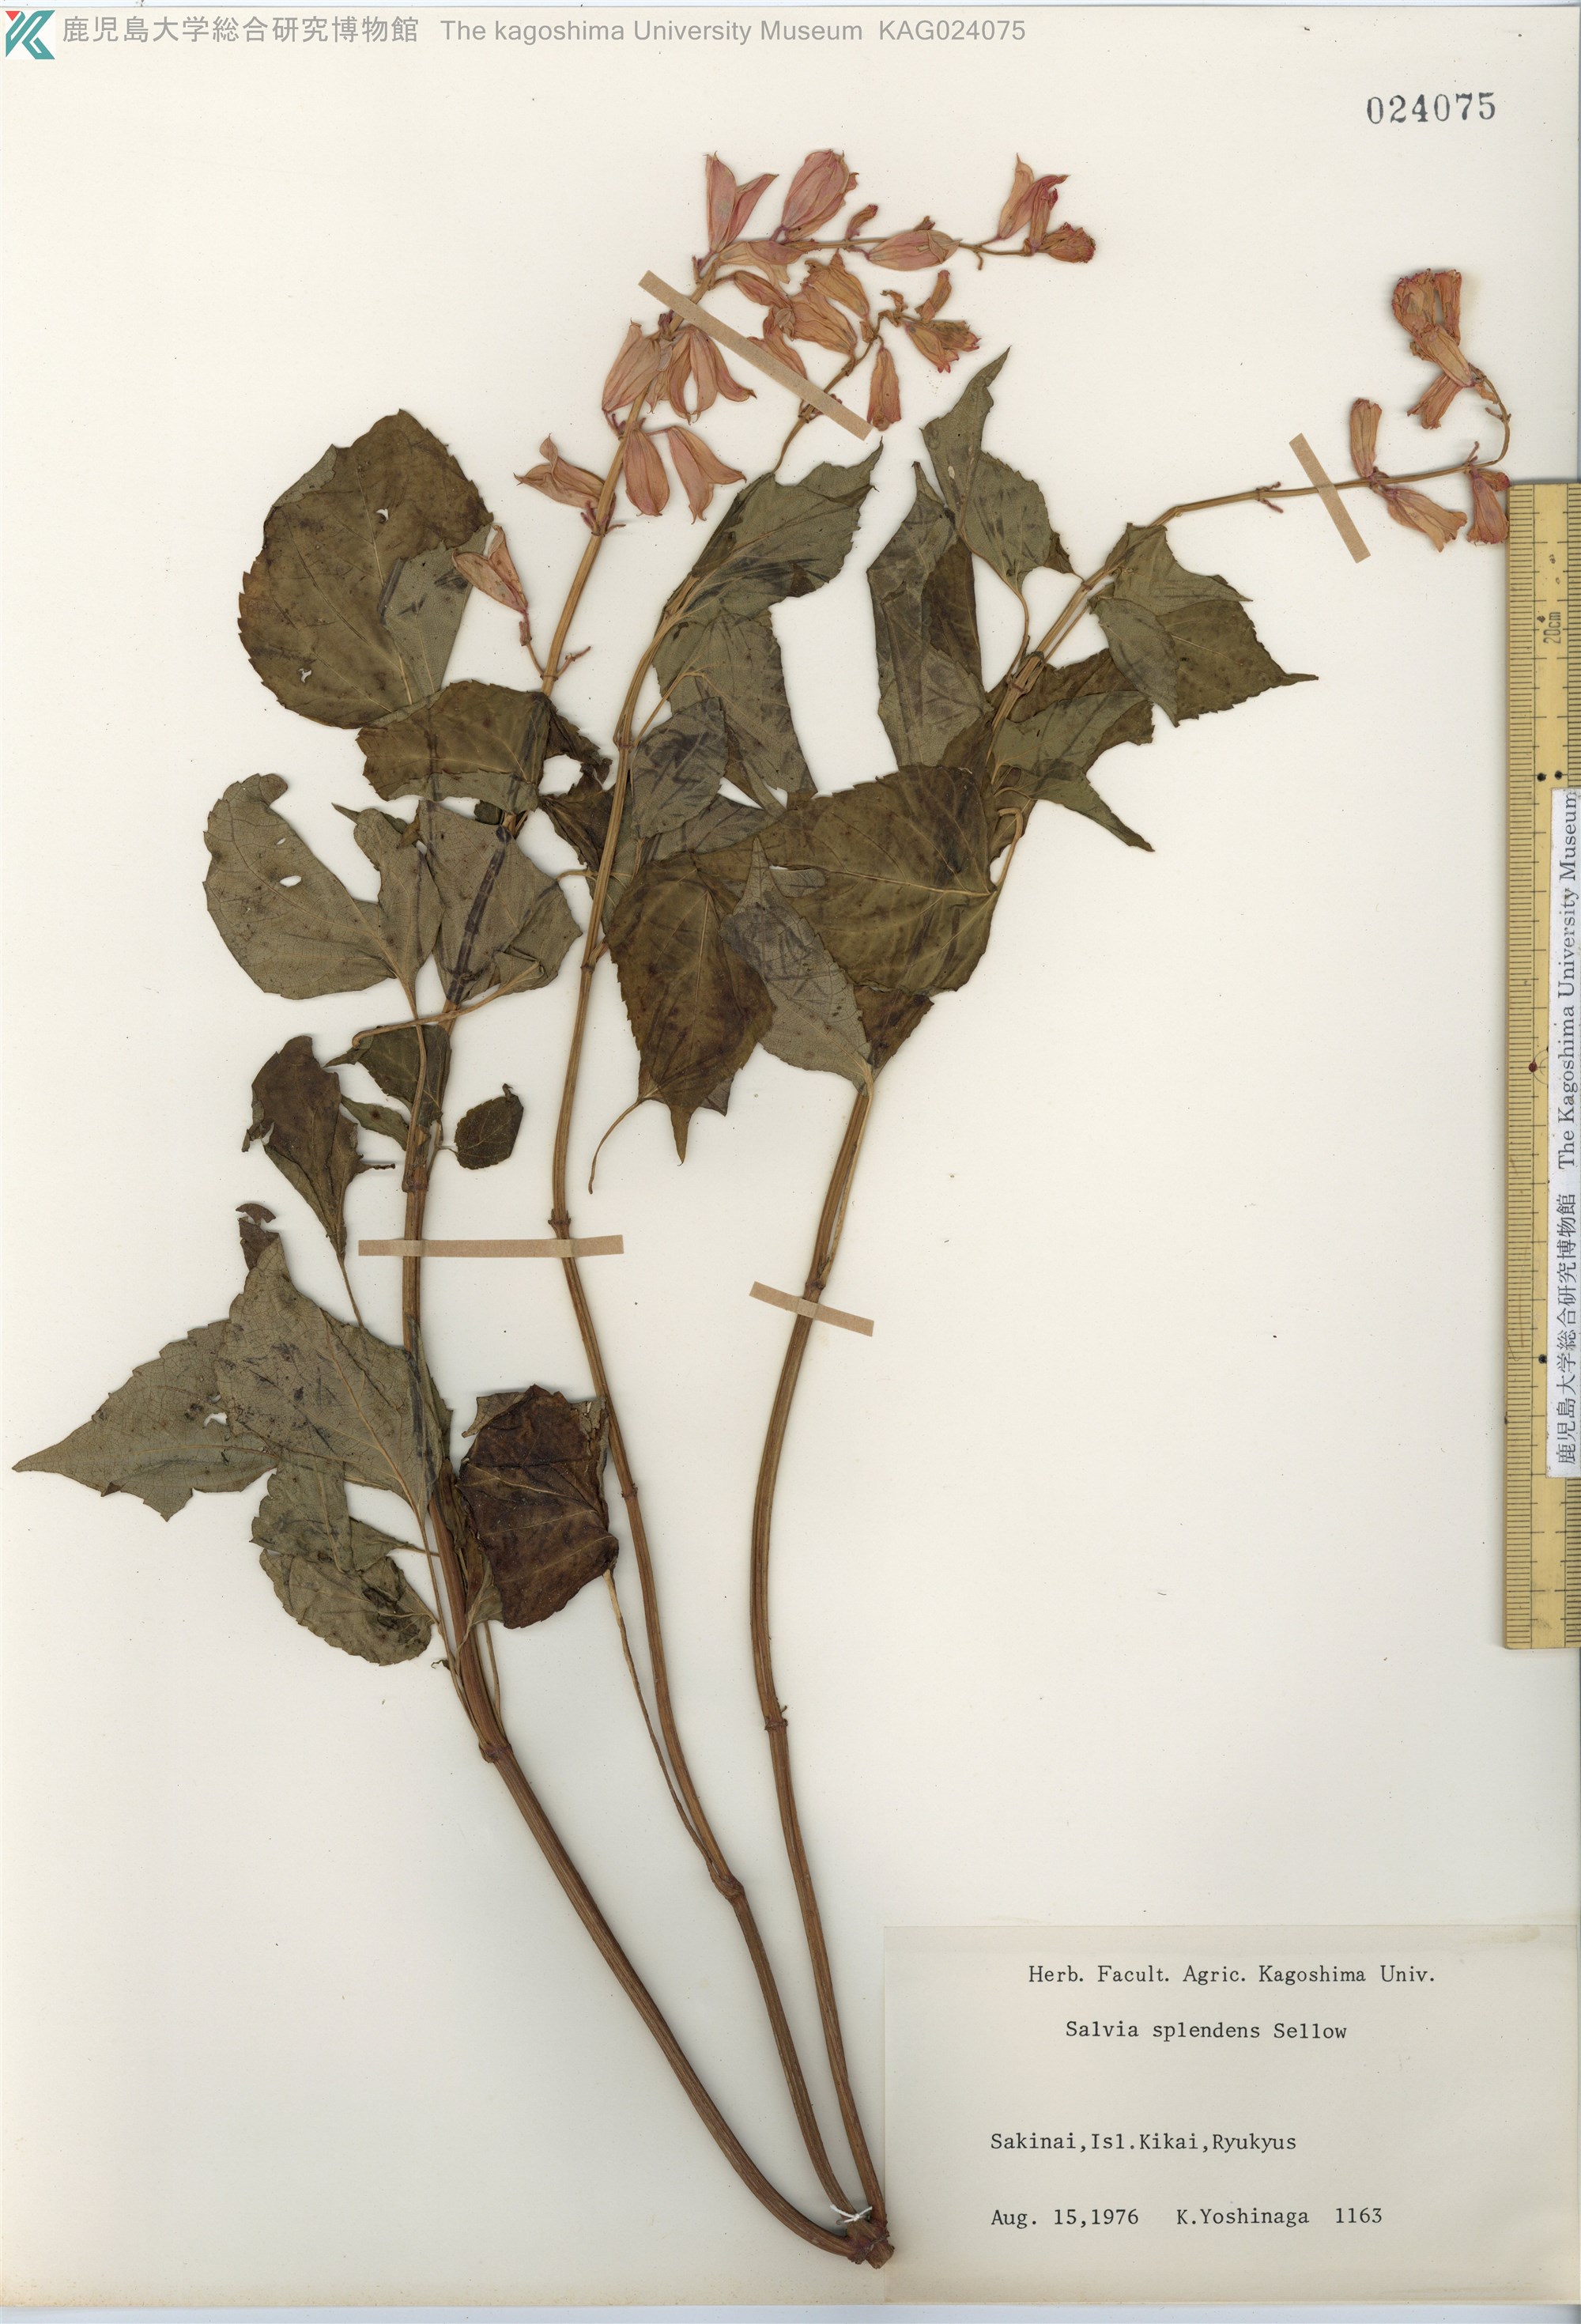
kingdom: Plantae
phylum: Tracheophyta
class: Magnoliopsida
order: Lamiales
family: Lamiaceae
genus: Salvia
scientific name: Salvia splendens
